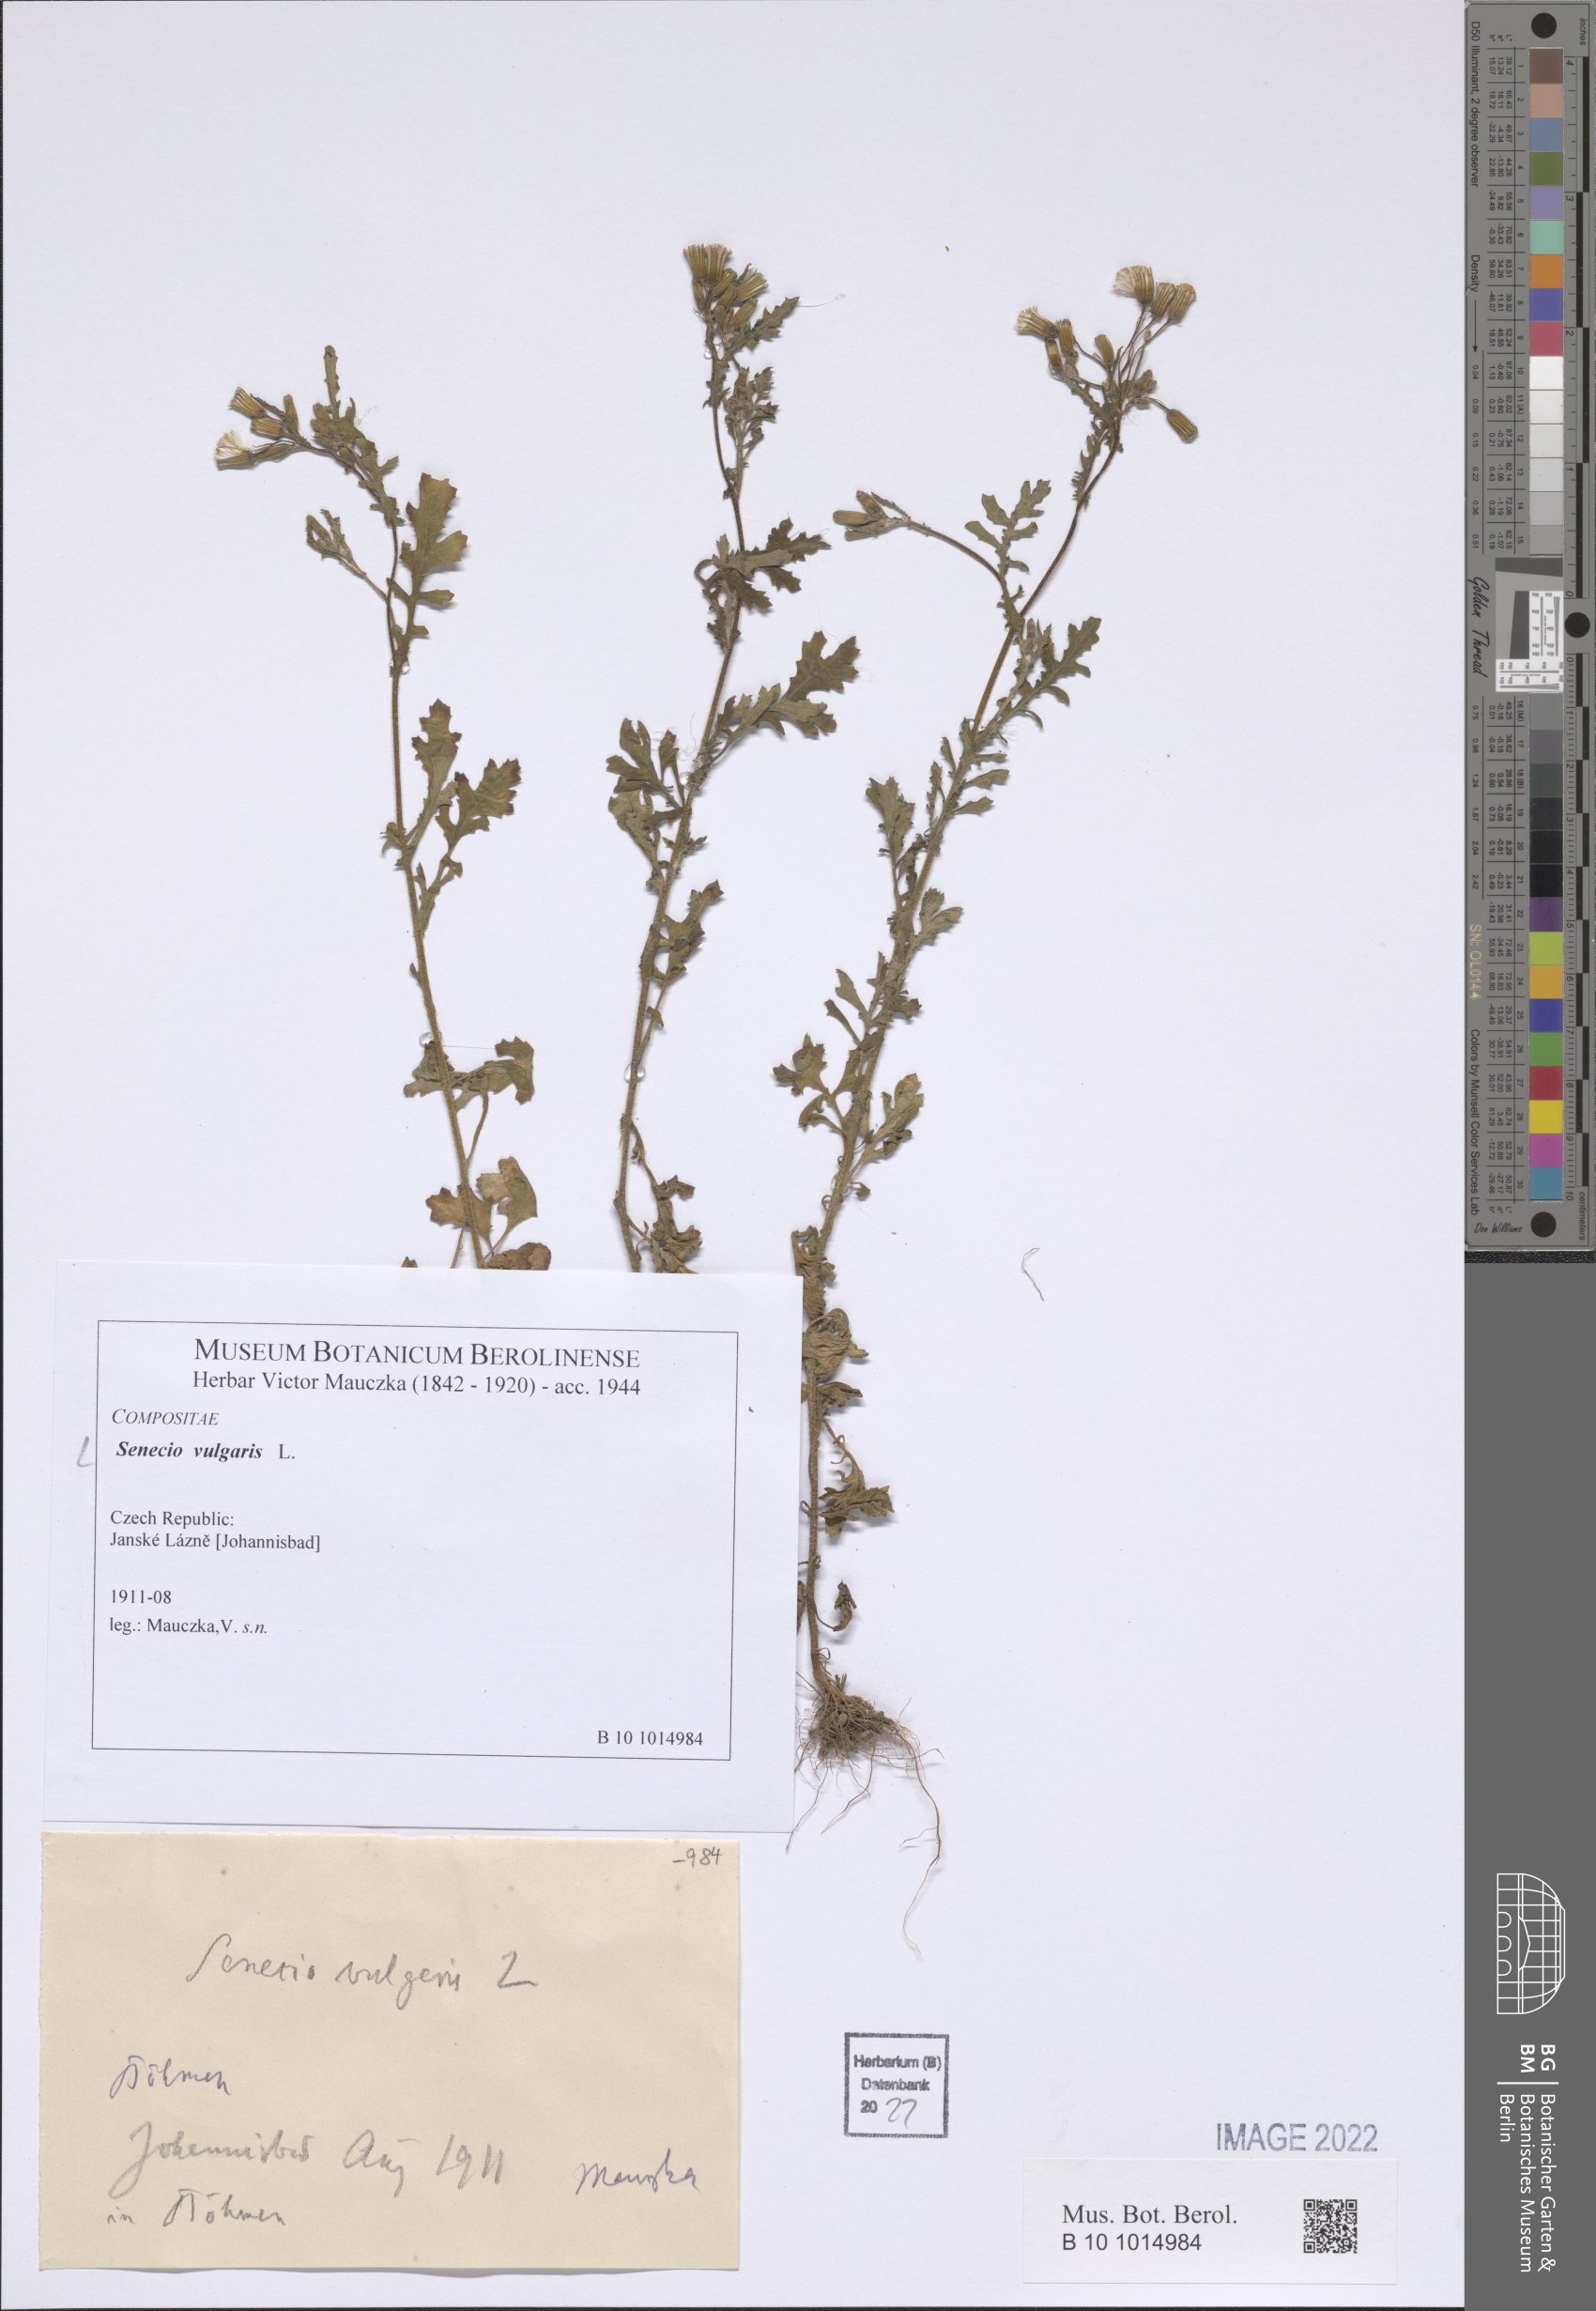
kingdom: Plantae
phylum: Tracheophyta
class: Magnoliopsida
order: Asterales
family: Asteraceae
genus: Senecio
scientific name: Senecio vulgaris
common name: Old-man-in-the-spring
